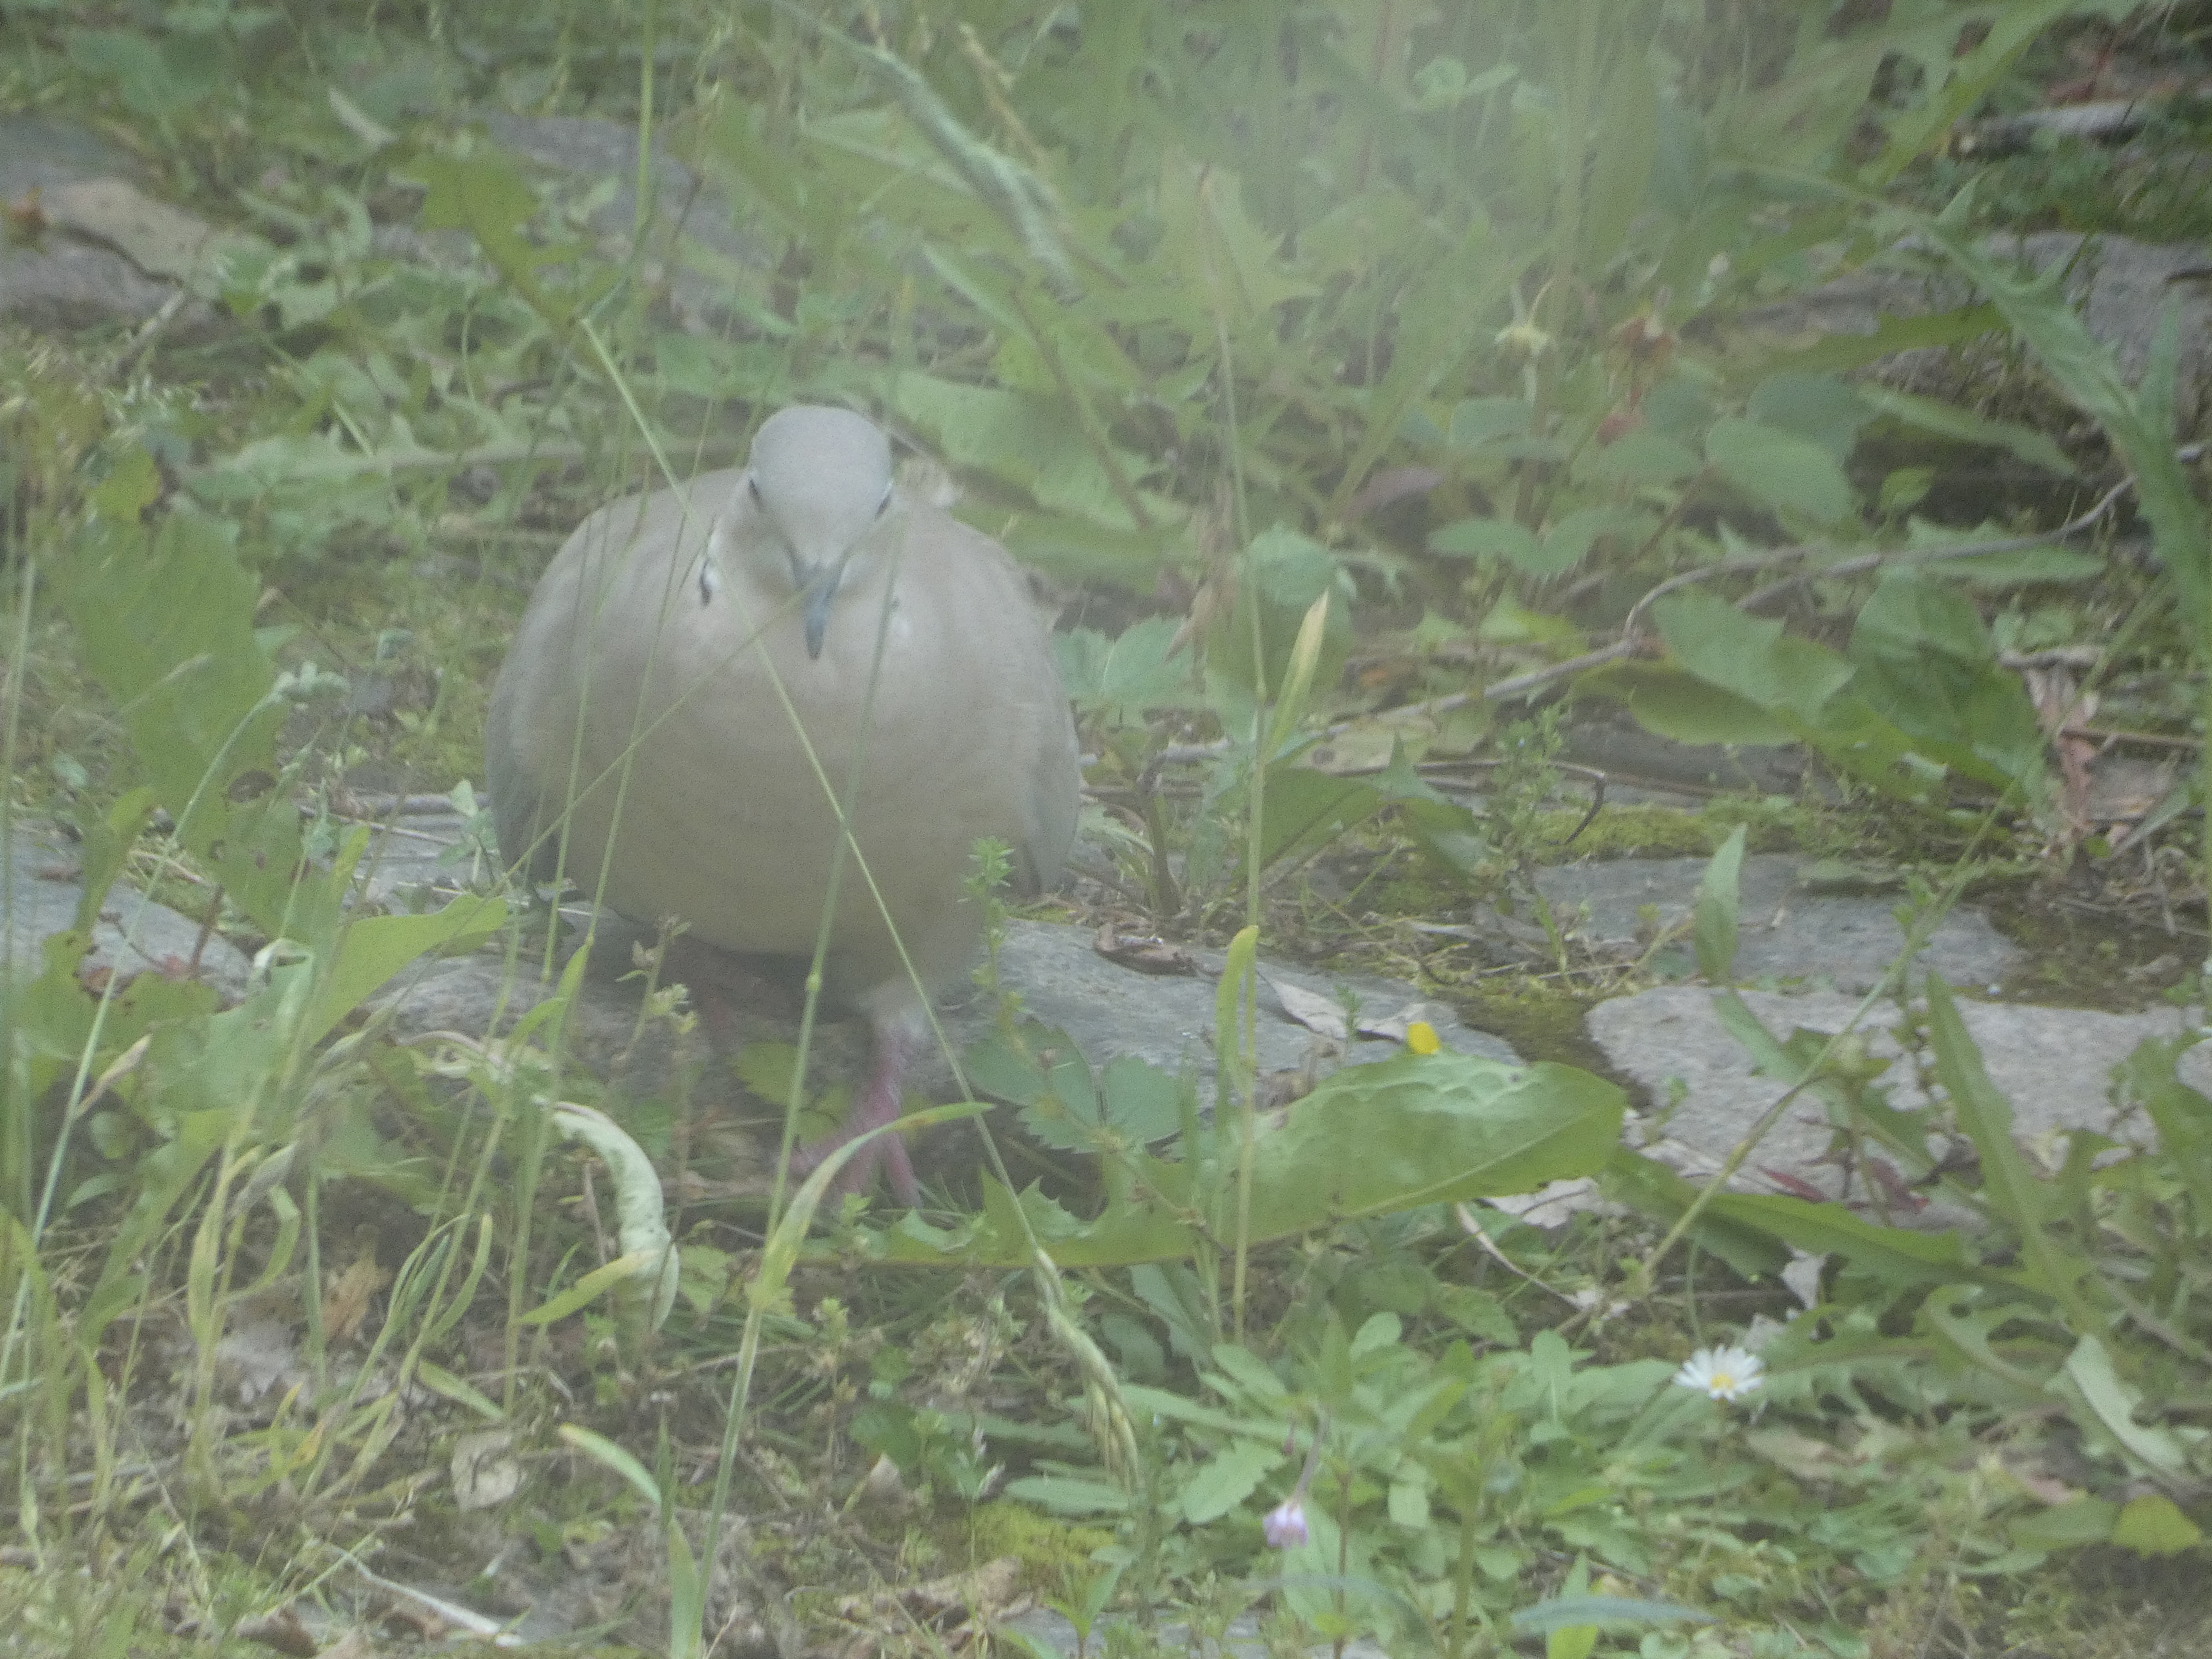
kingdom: Animalia
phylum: Chordata
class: Aves
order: Columbiformes
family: Columbidae
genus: Streptopelia
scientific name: Streptopelia decaocto
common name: Tyrkerdue
